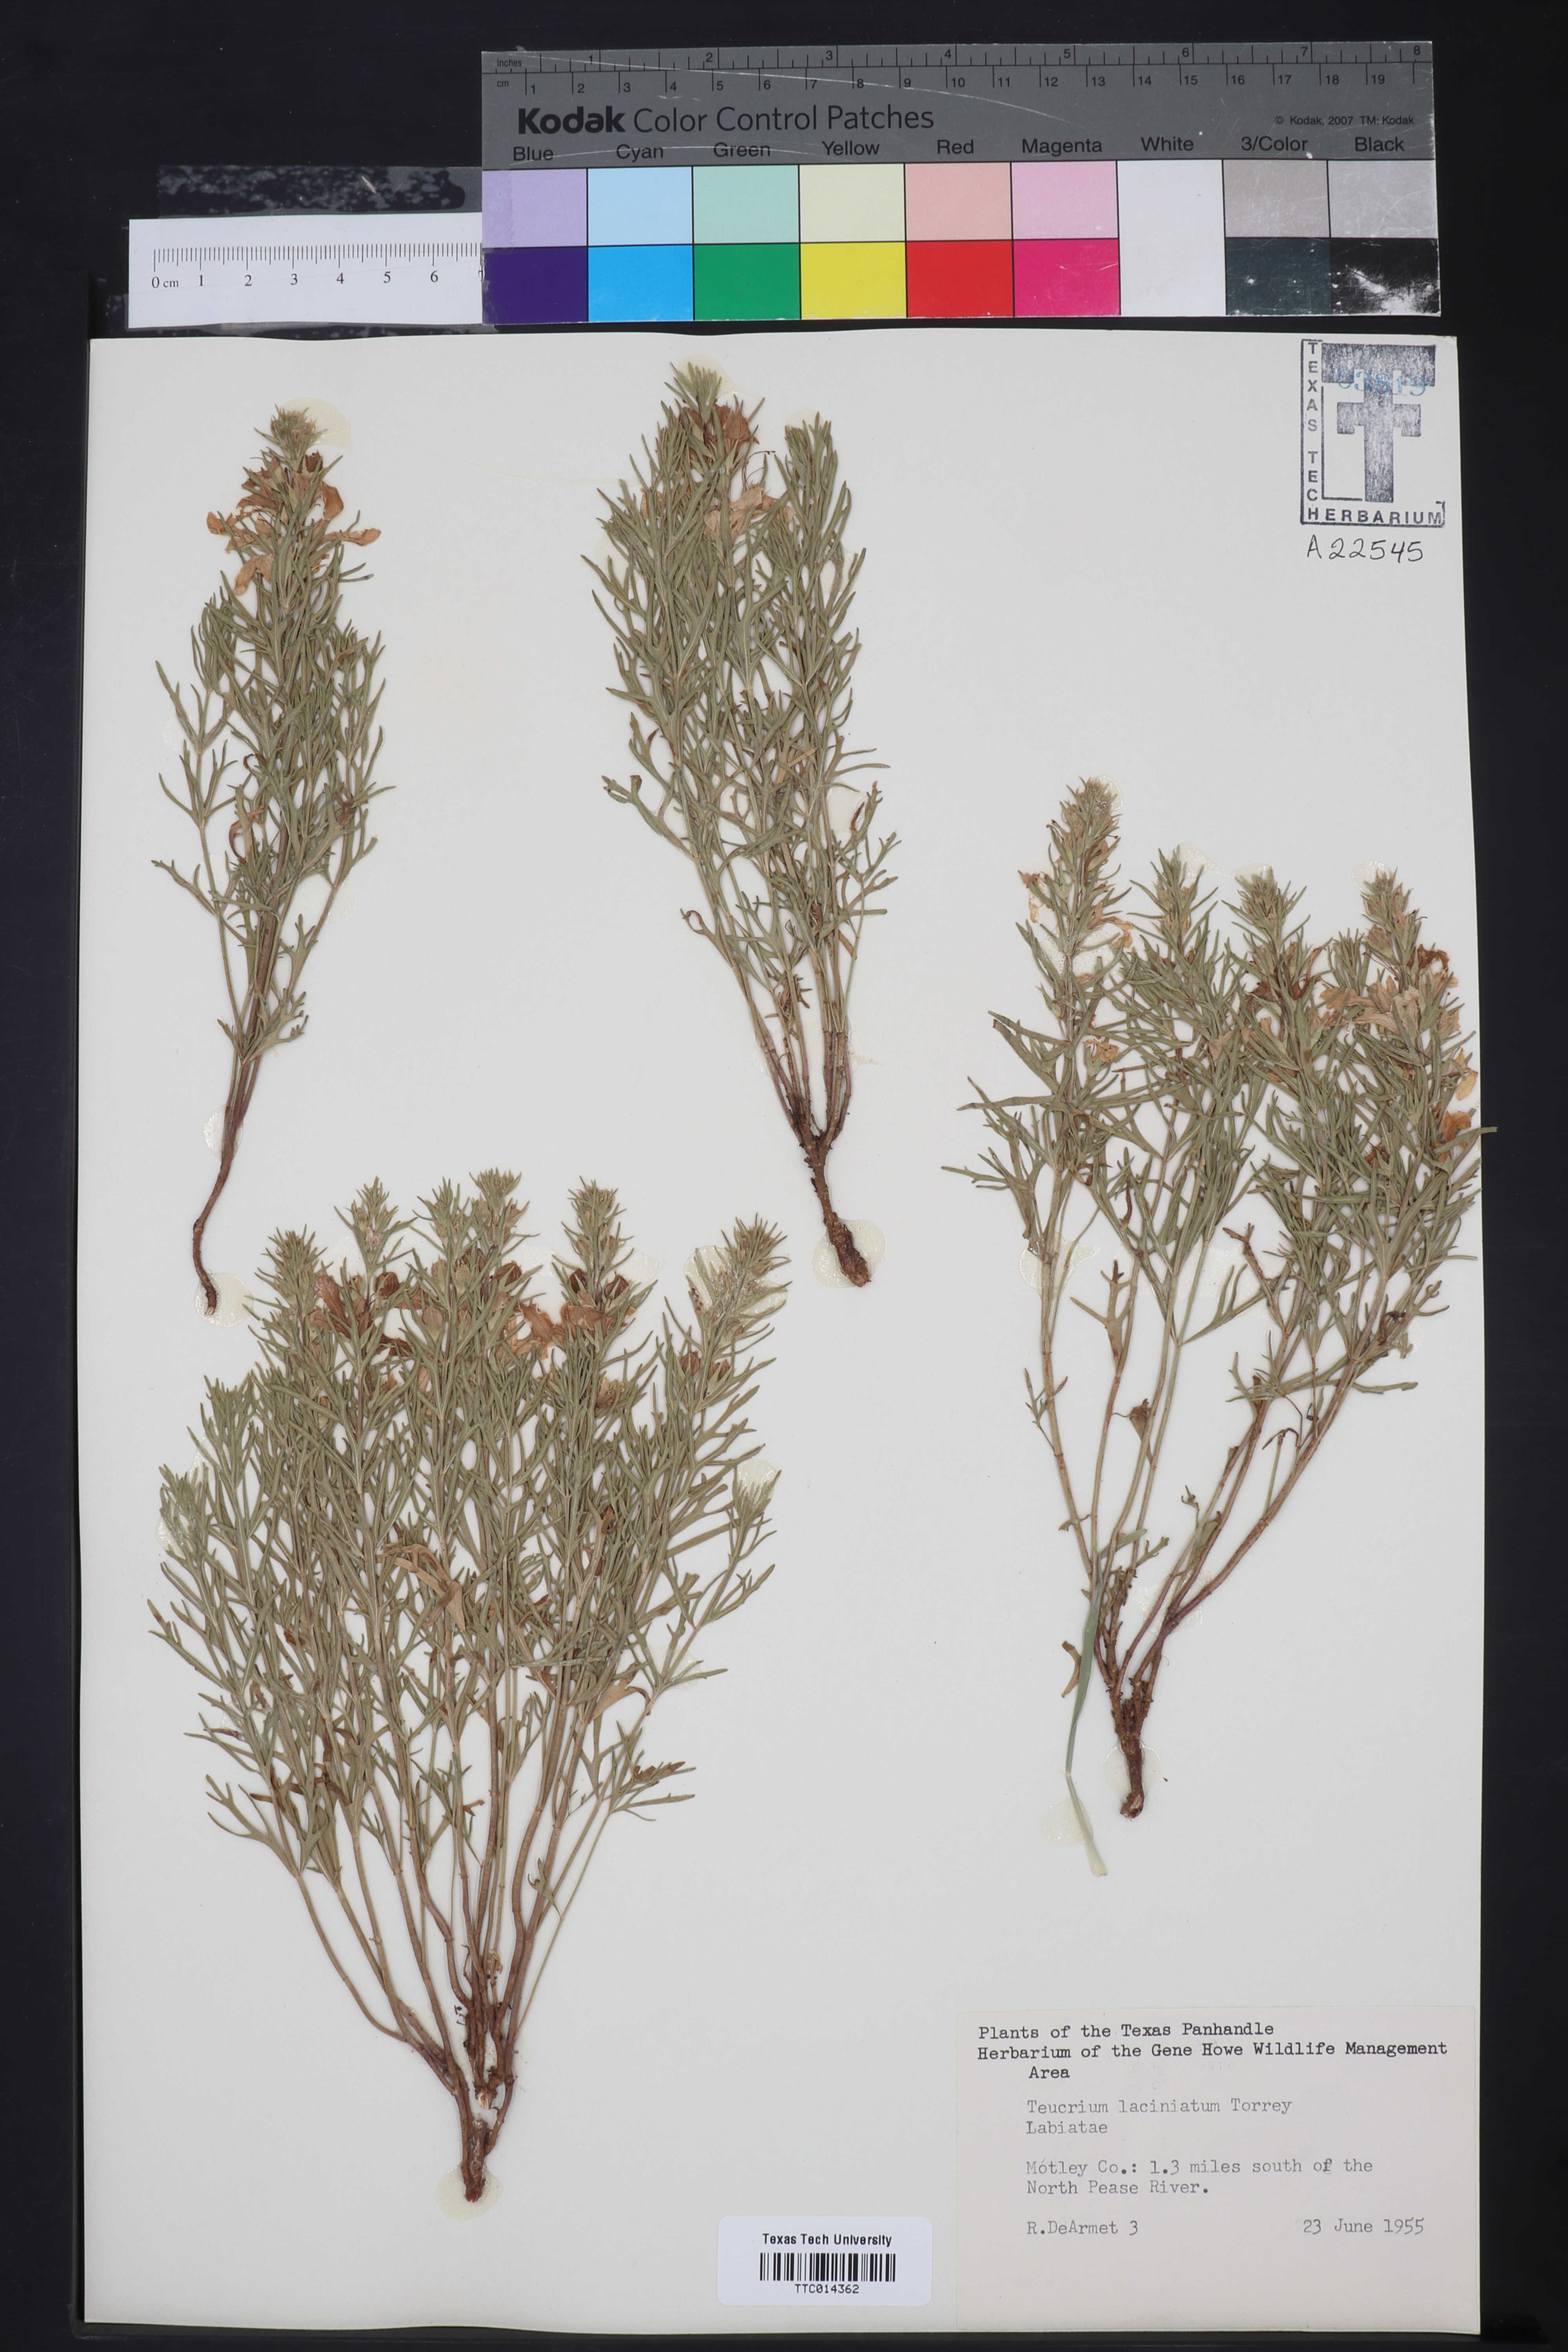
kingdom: Plantae
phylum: Tracheophyta
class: Magnoliopsida
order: Lamiales
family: Lamiaceae
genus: Teucrium
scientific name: Teucrium laciniatum
